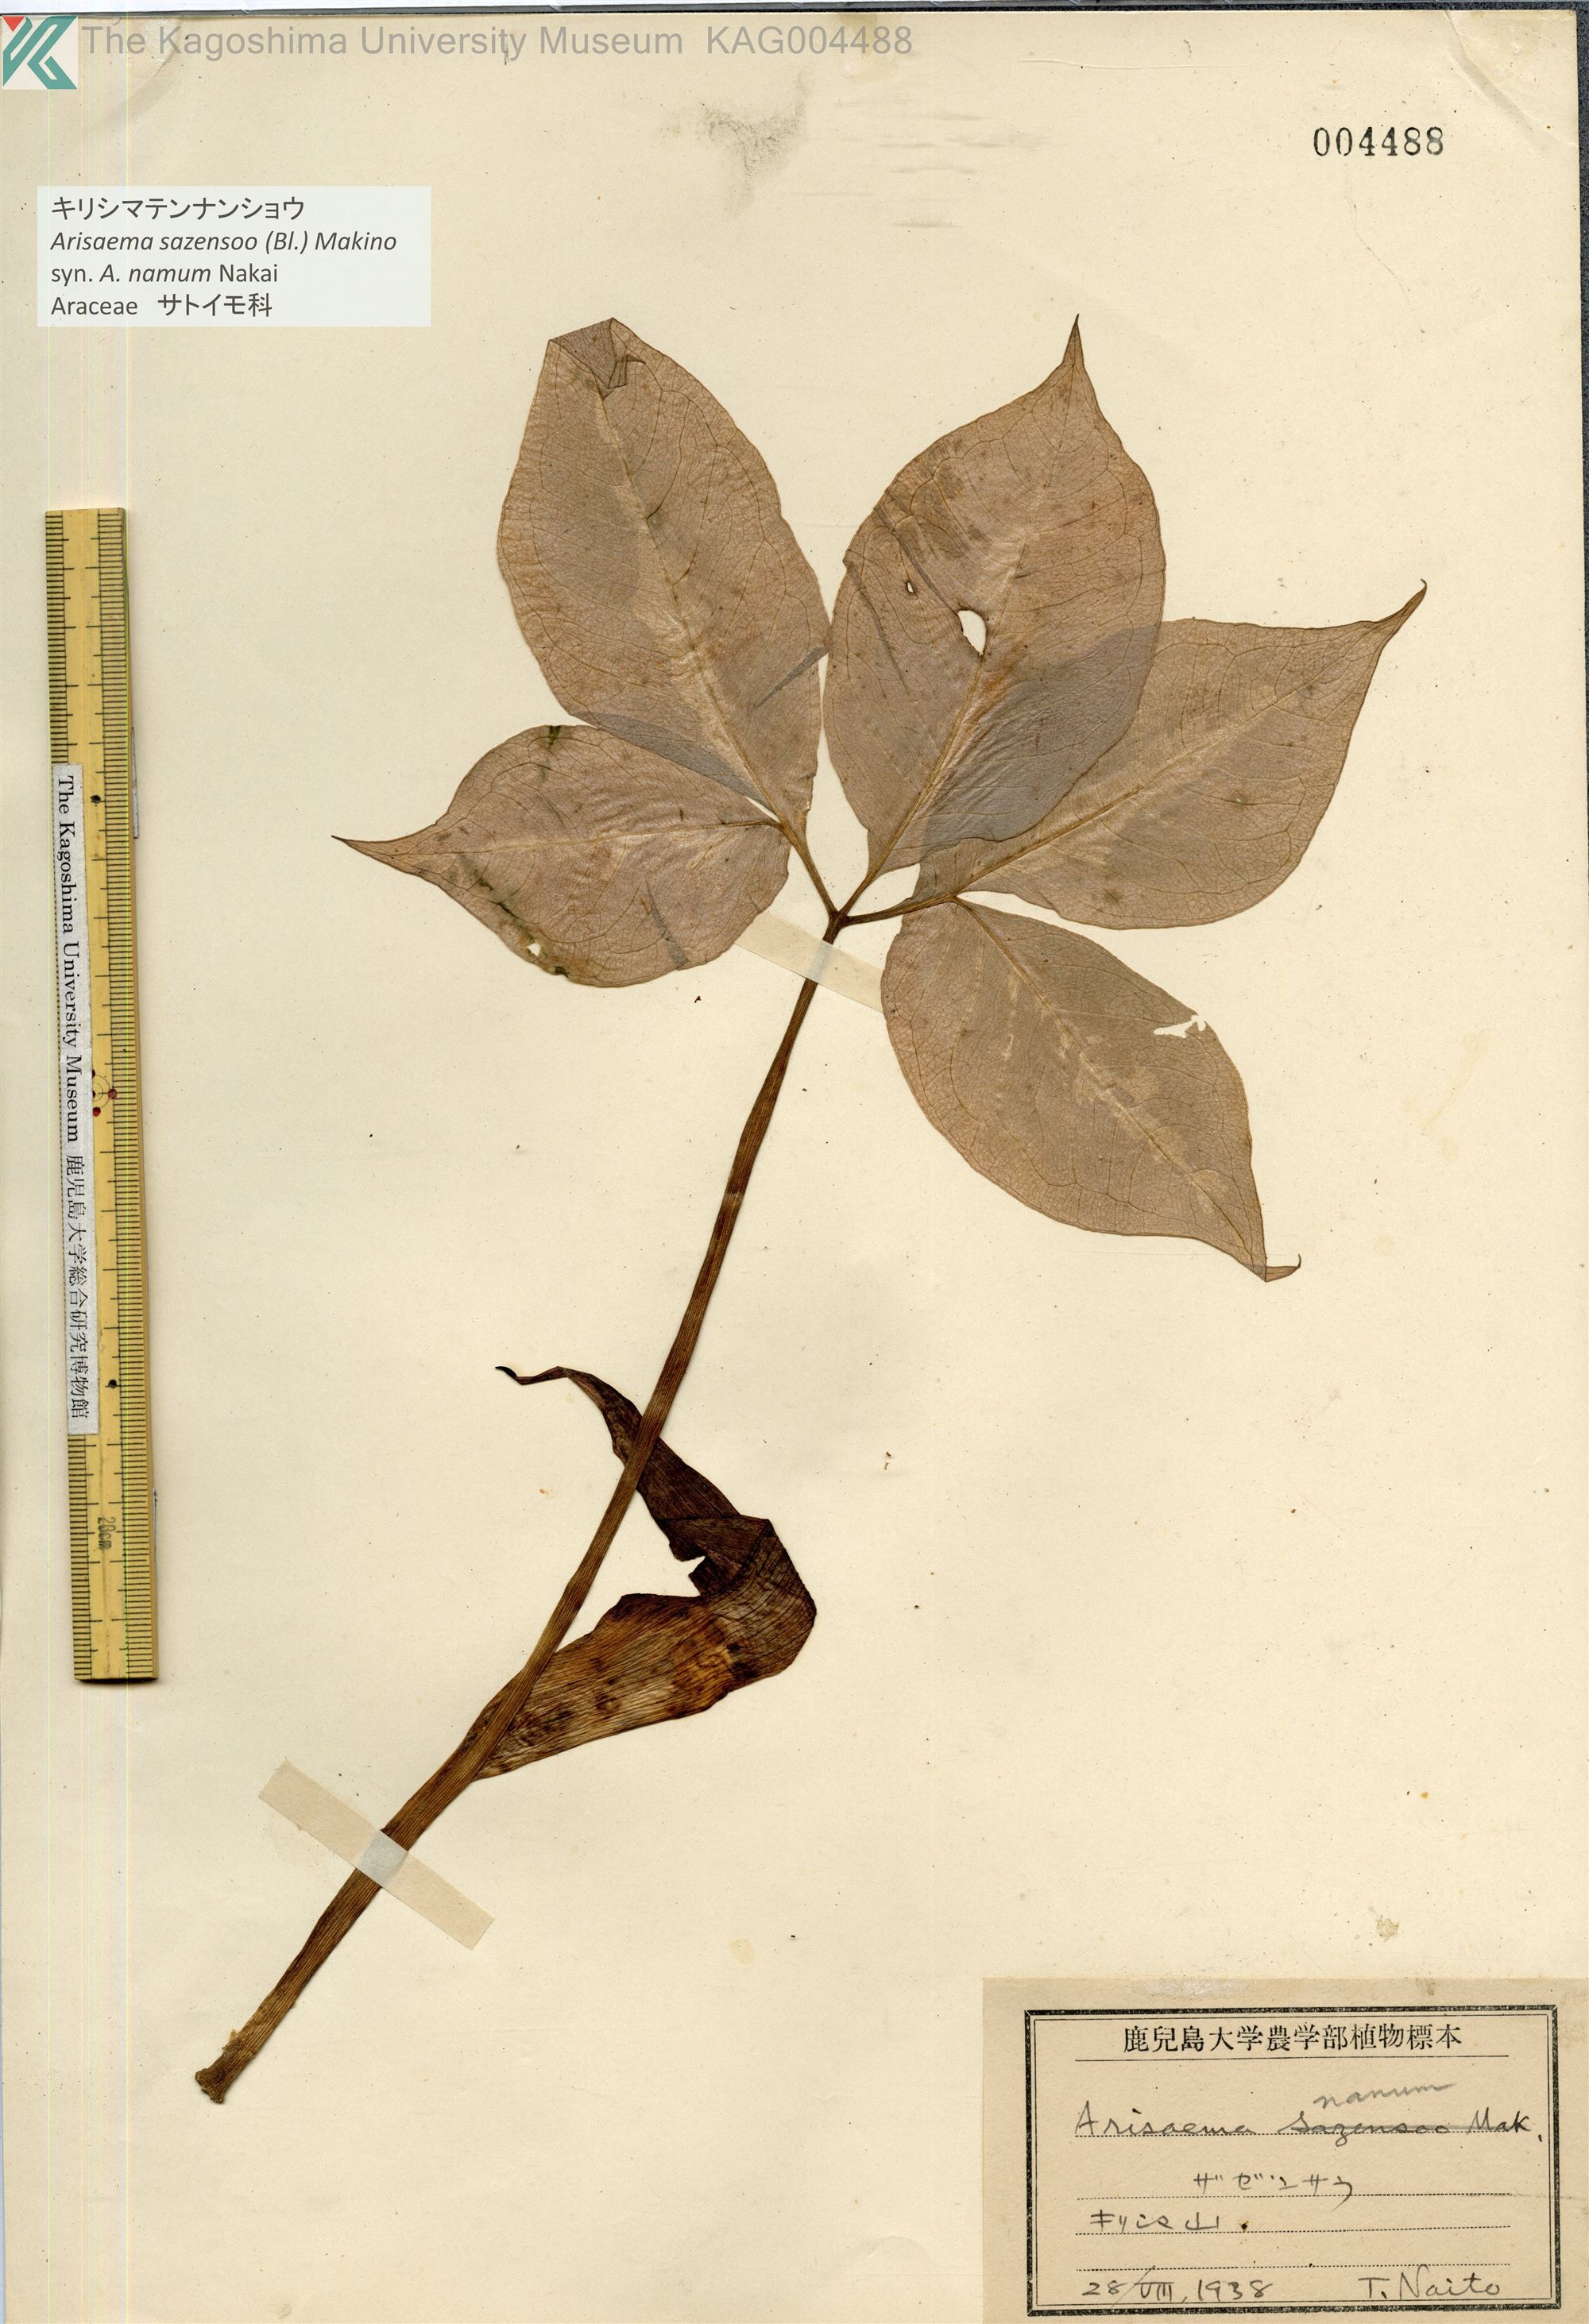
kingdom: Plantae
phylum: Tracheophyta
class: Liliopsida
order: Alismatales
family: Araceae
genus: Arisaema
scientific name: Arisaema sazensoo
